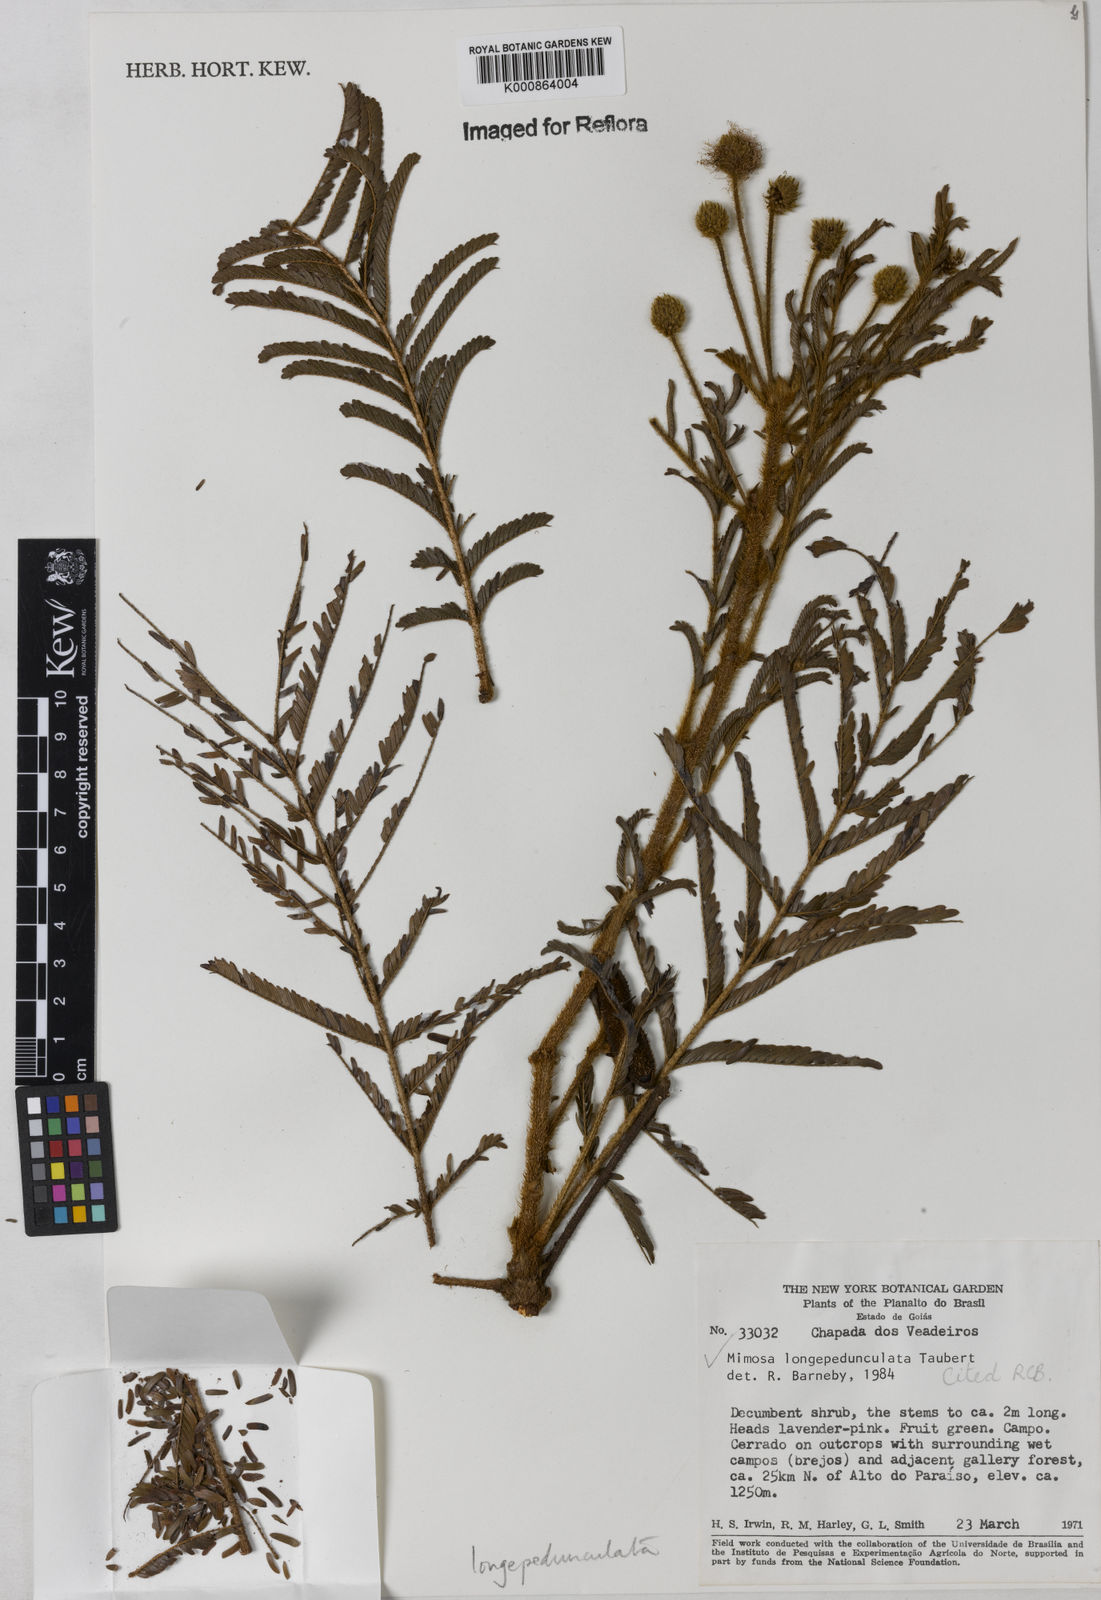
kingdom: Plantae
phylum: Tracheophyta
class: Magnoliopsida
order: Fabales
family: Fabaceae
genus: Mimosa
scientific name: Mimosa tocantina
